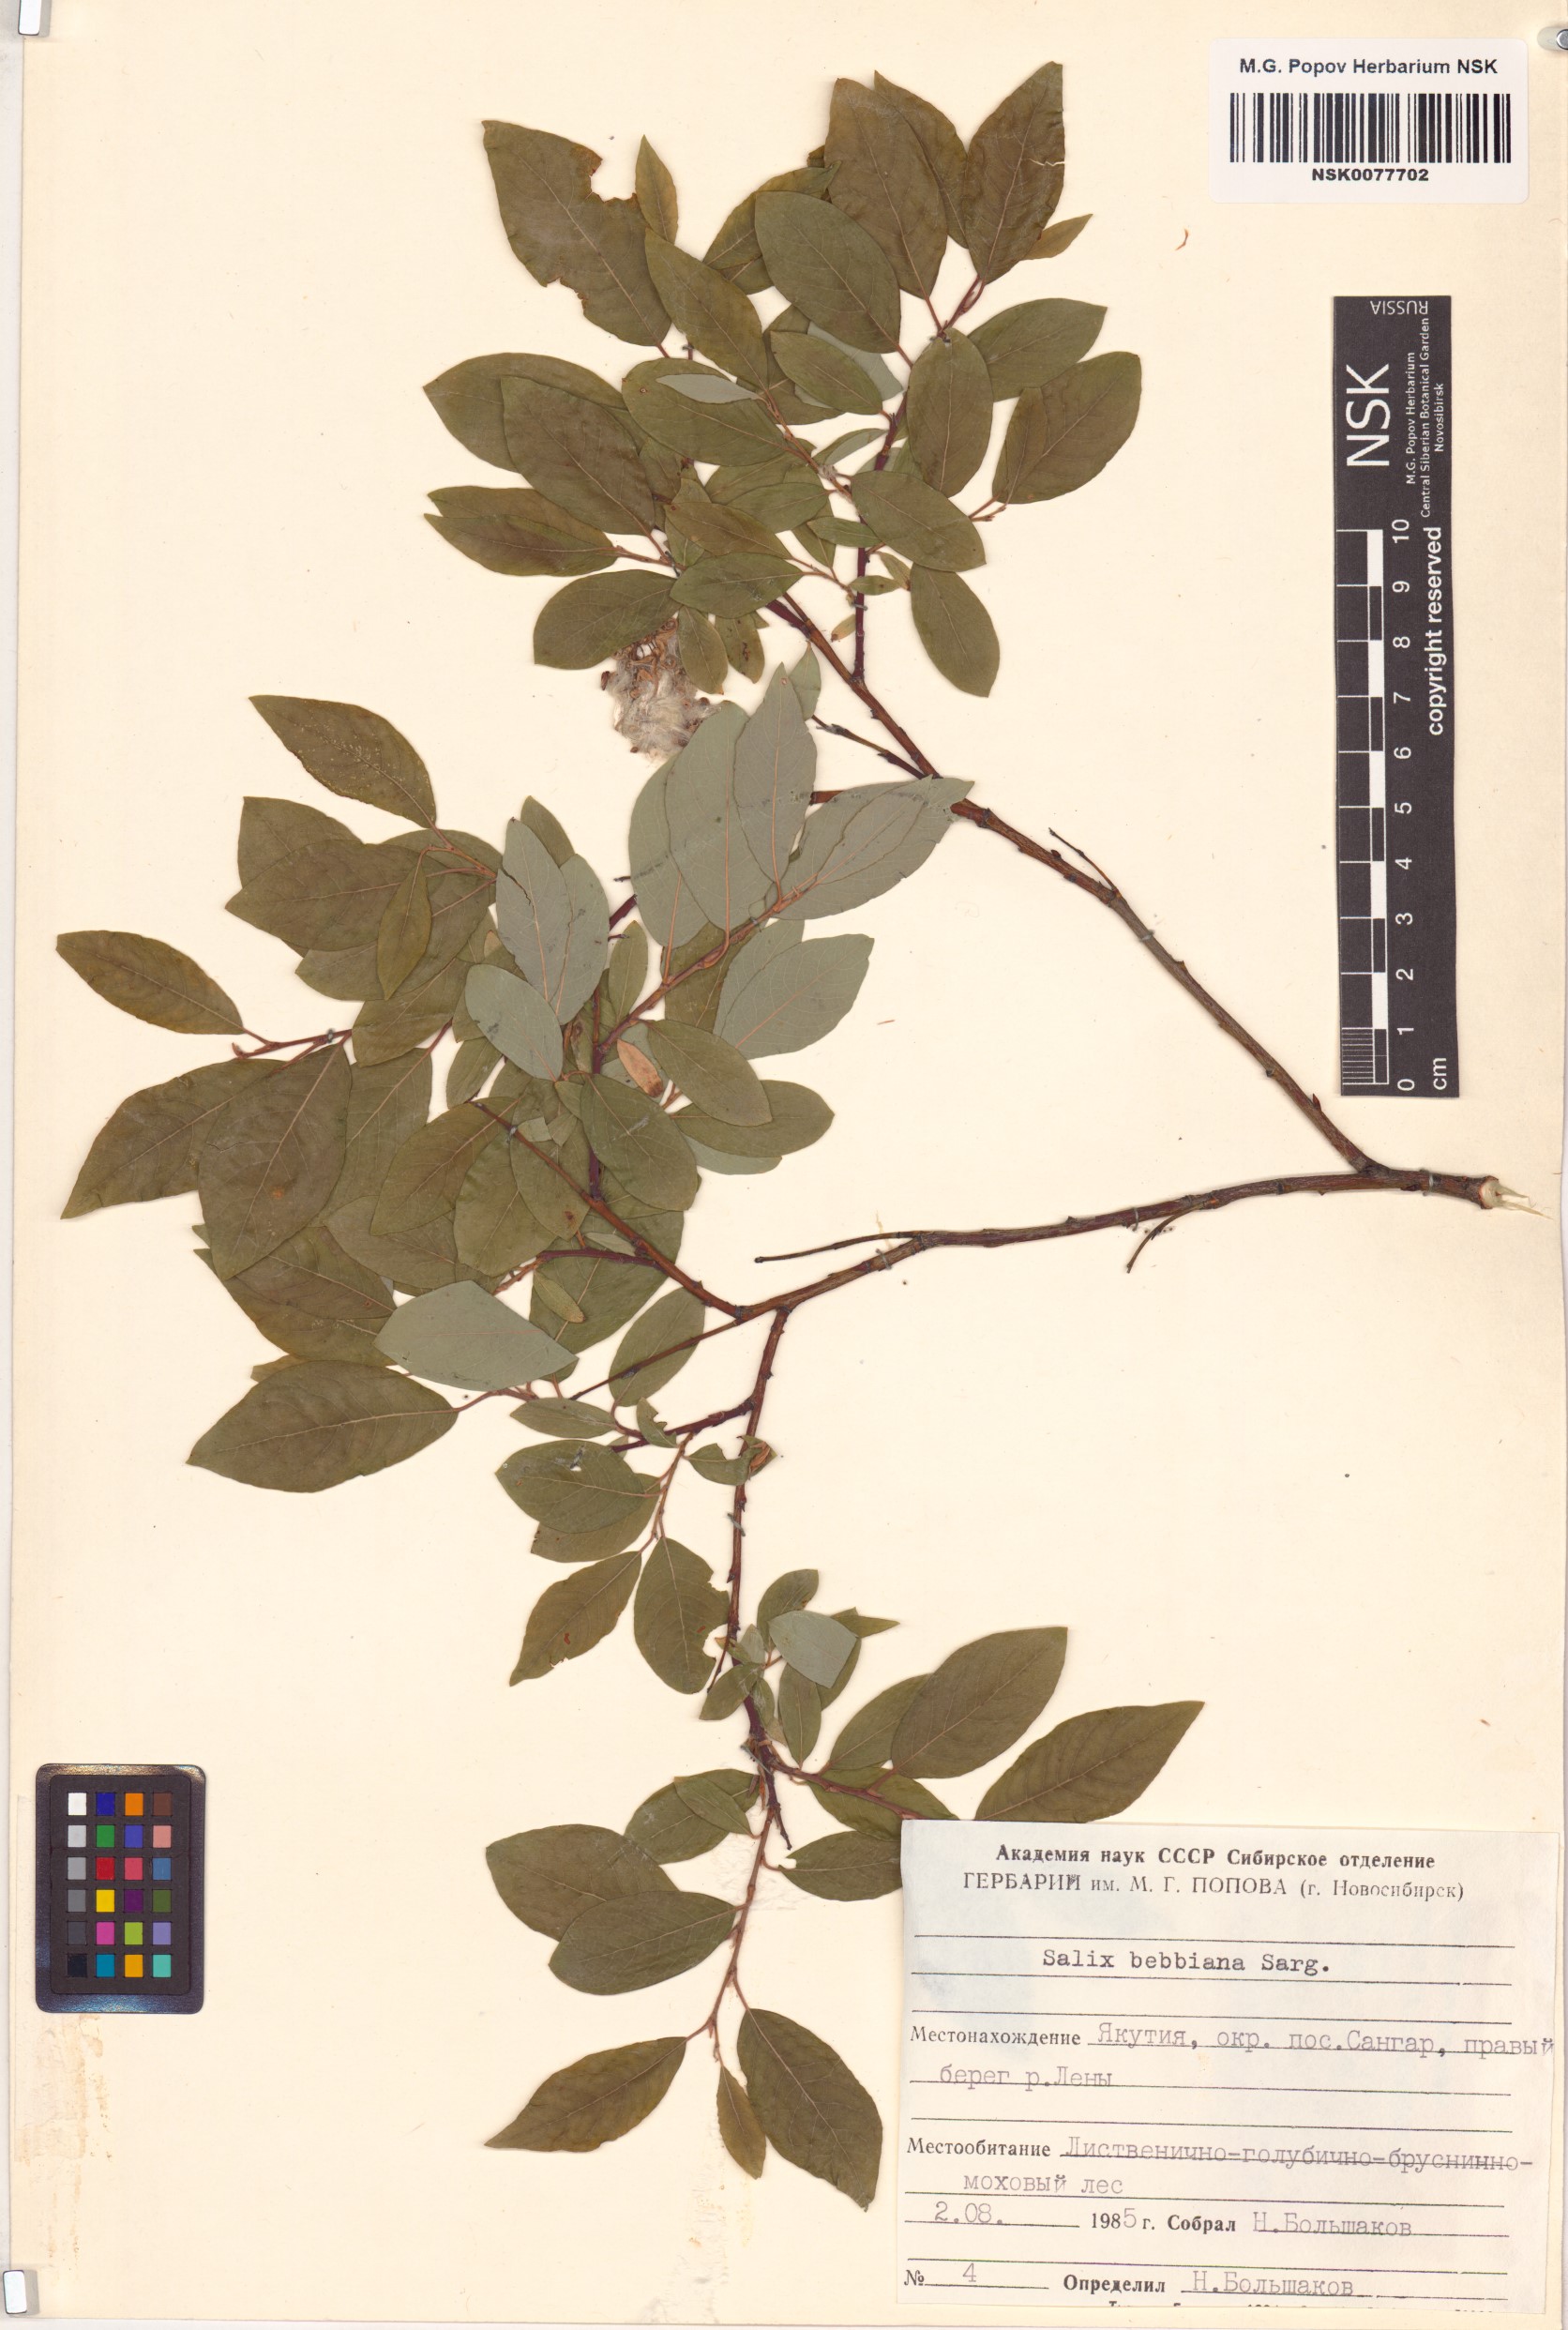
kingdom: Plantae
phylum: Tracheophyta
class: Magnoliopsida
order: Malpighiales
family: Salicaceae
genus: Salix
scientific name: Salix bebbiana
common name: Bebb's willow
